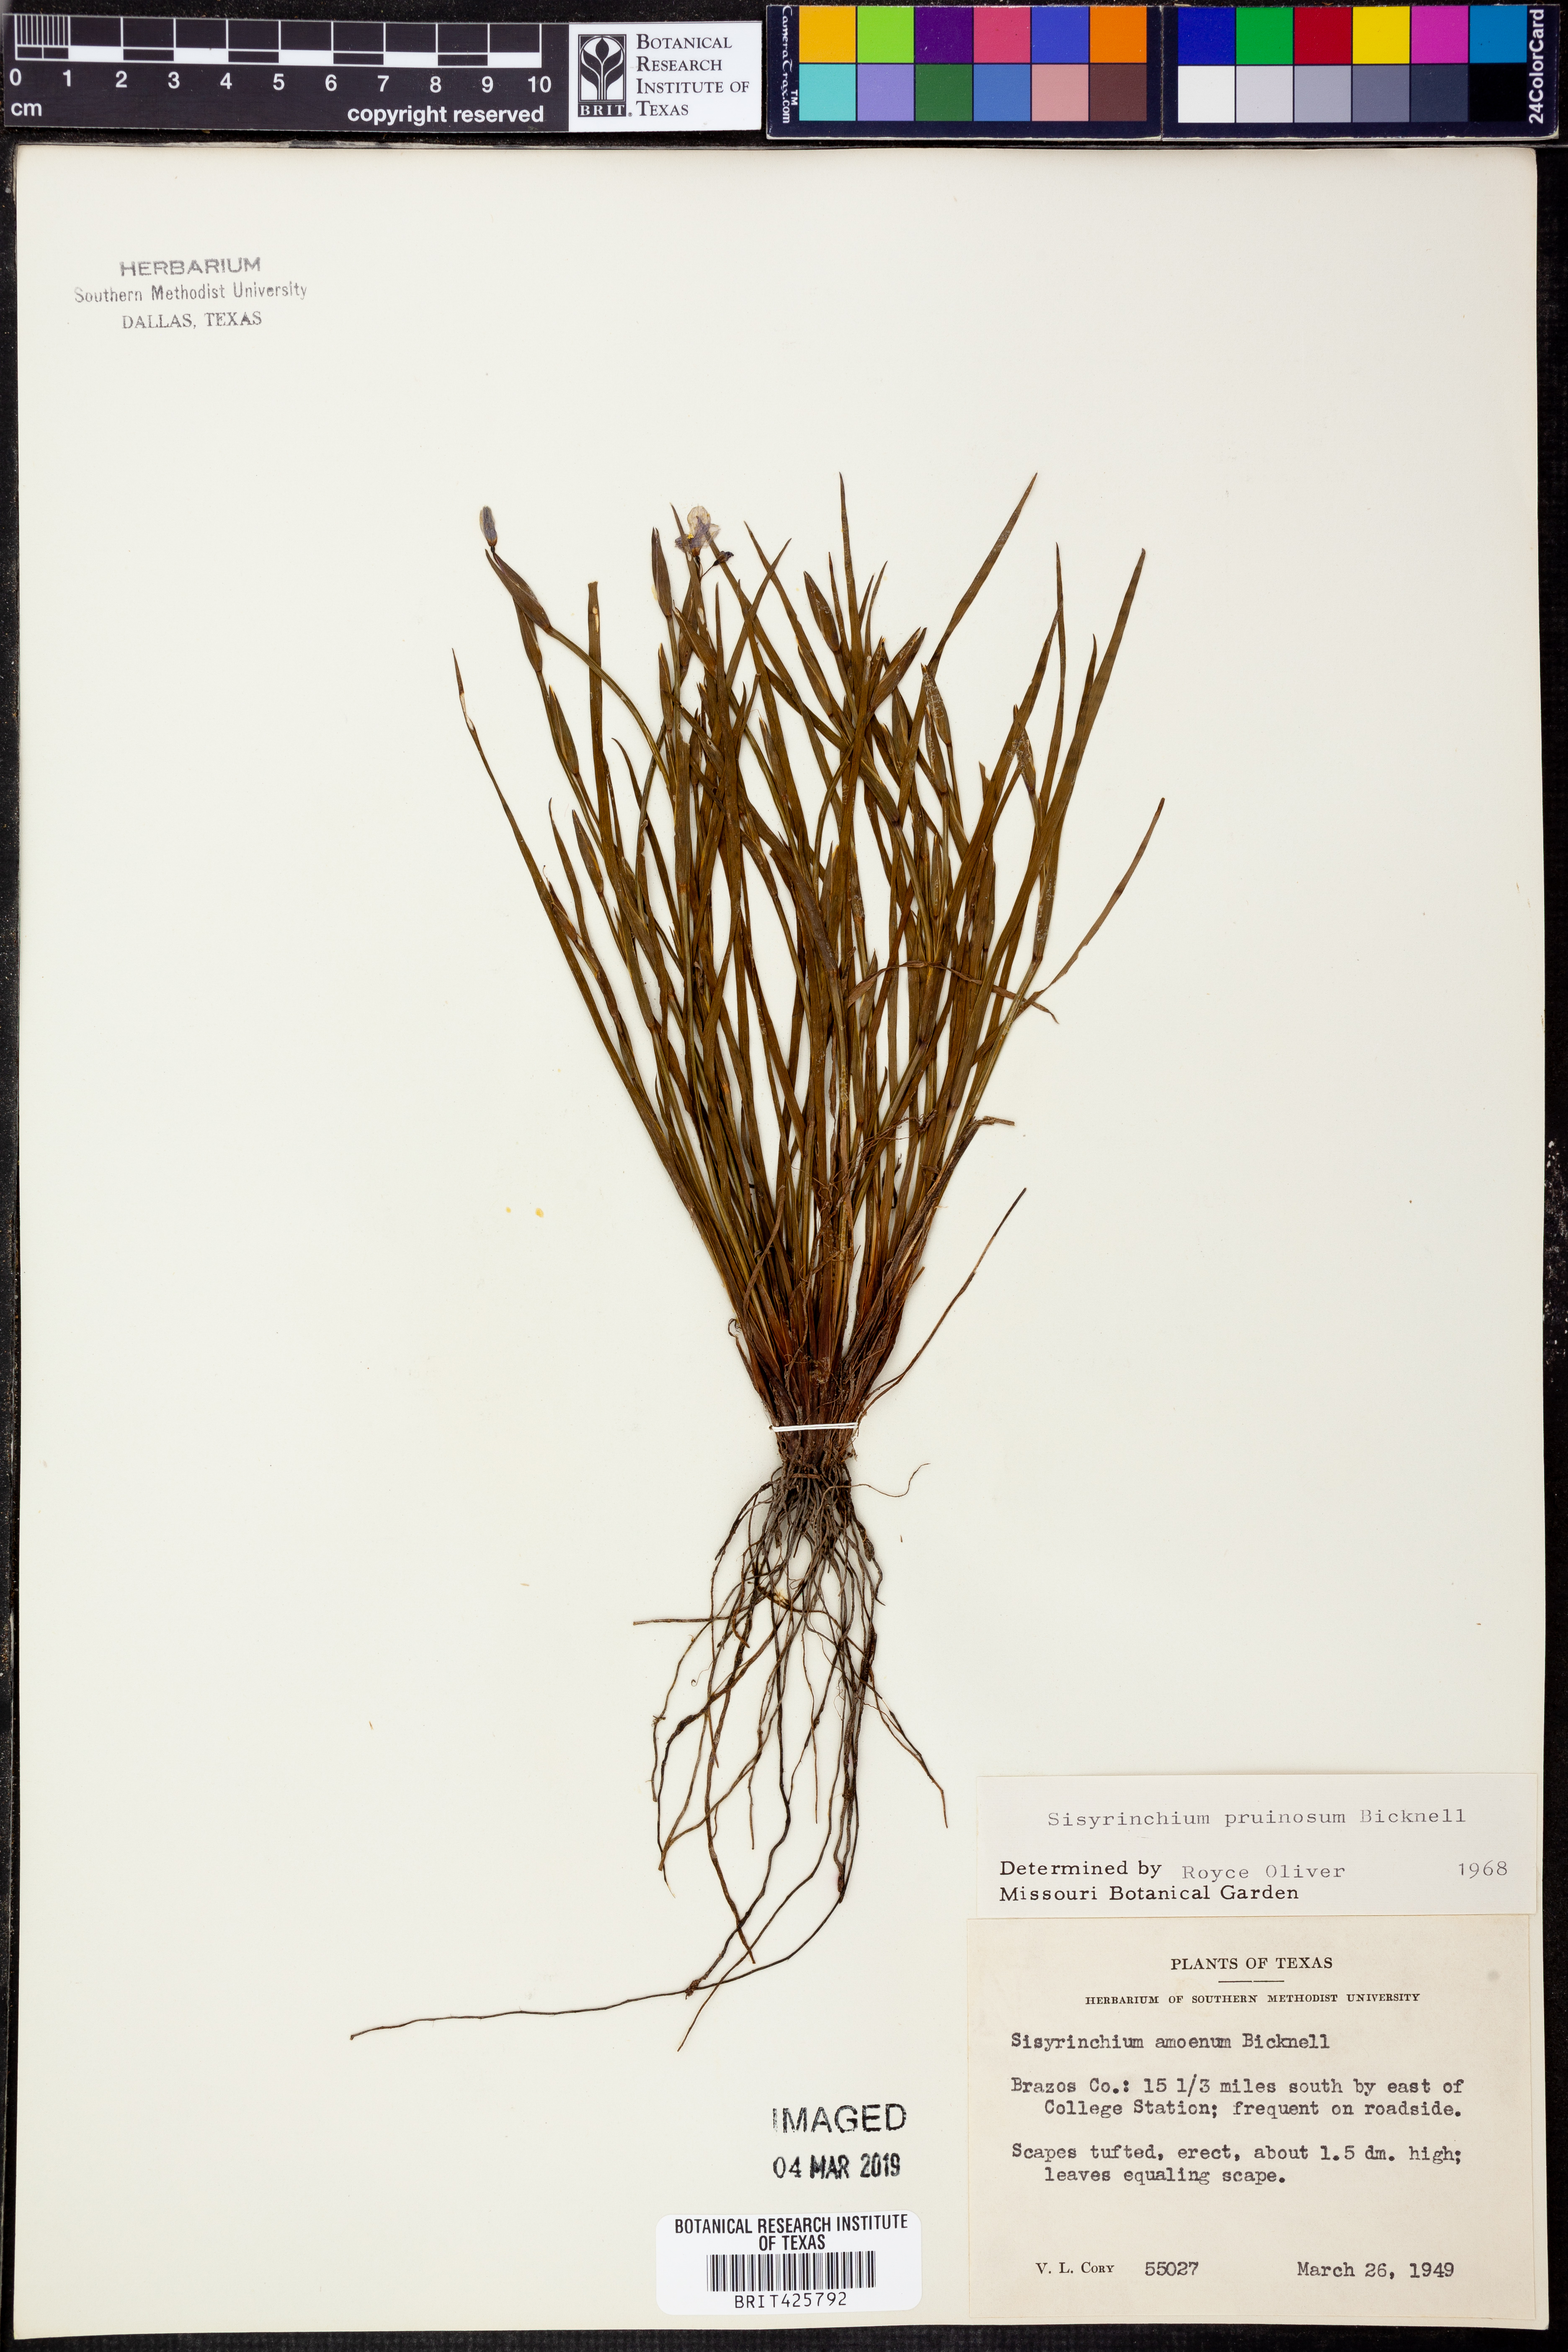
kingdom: Plantae
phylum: Tracheophyta
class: Liliopsida
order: Asparagales
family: Iridaceae
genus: Sisyrinchium
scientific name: Sisyrinchium pruinosum
